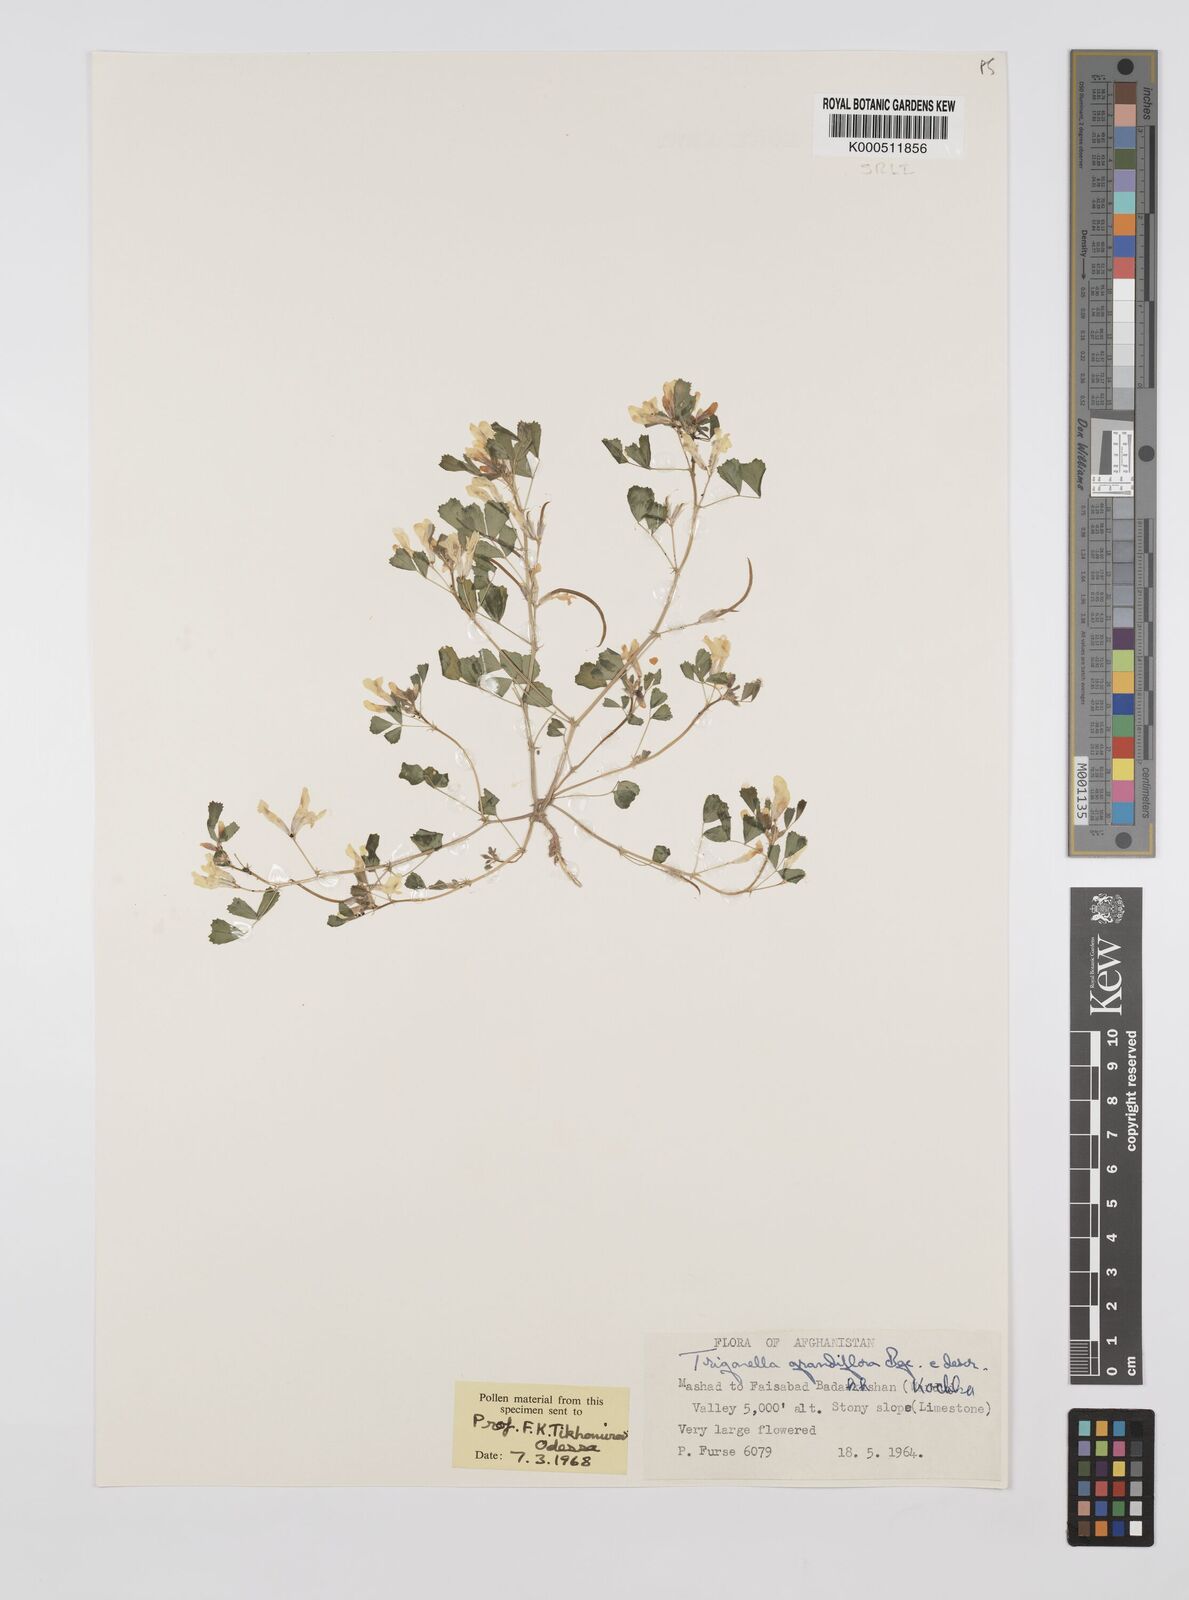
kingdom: Plantae
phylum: Tracheophyta
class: Magnoliopsida
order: Fabales
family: Fabaceae
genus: Trigonella
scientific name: Trigonella grandiflora
